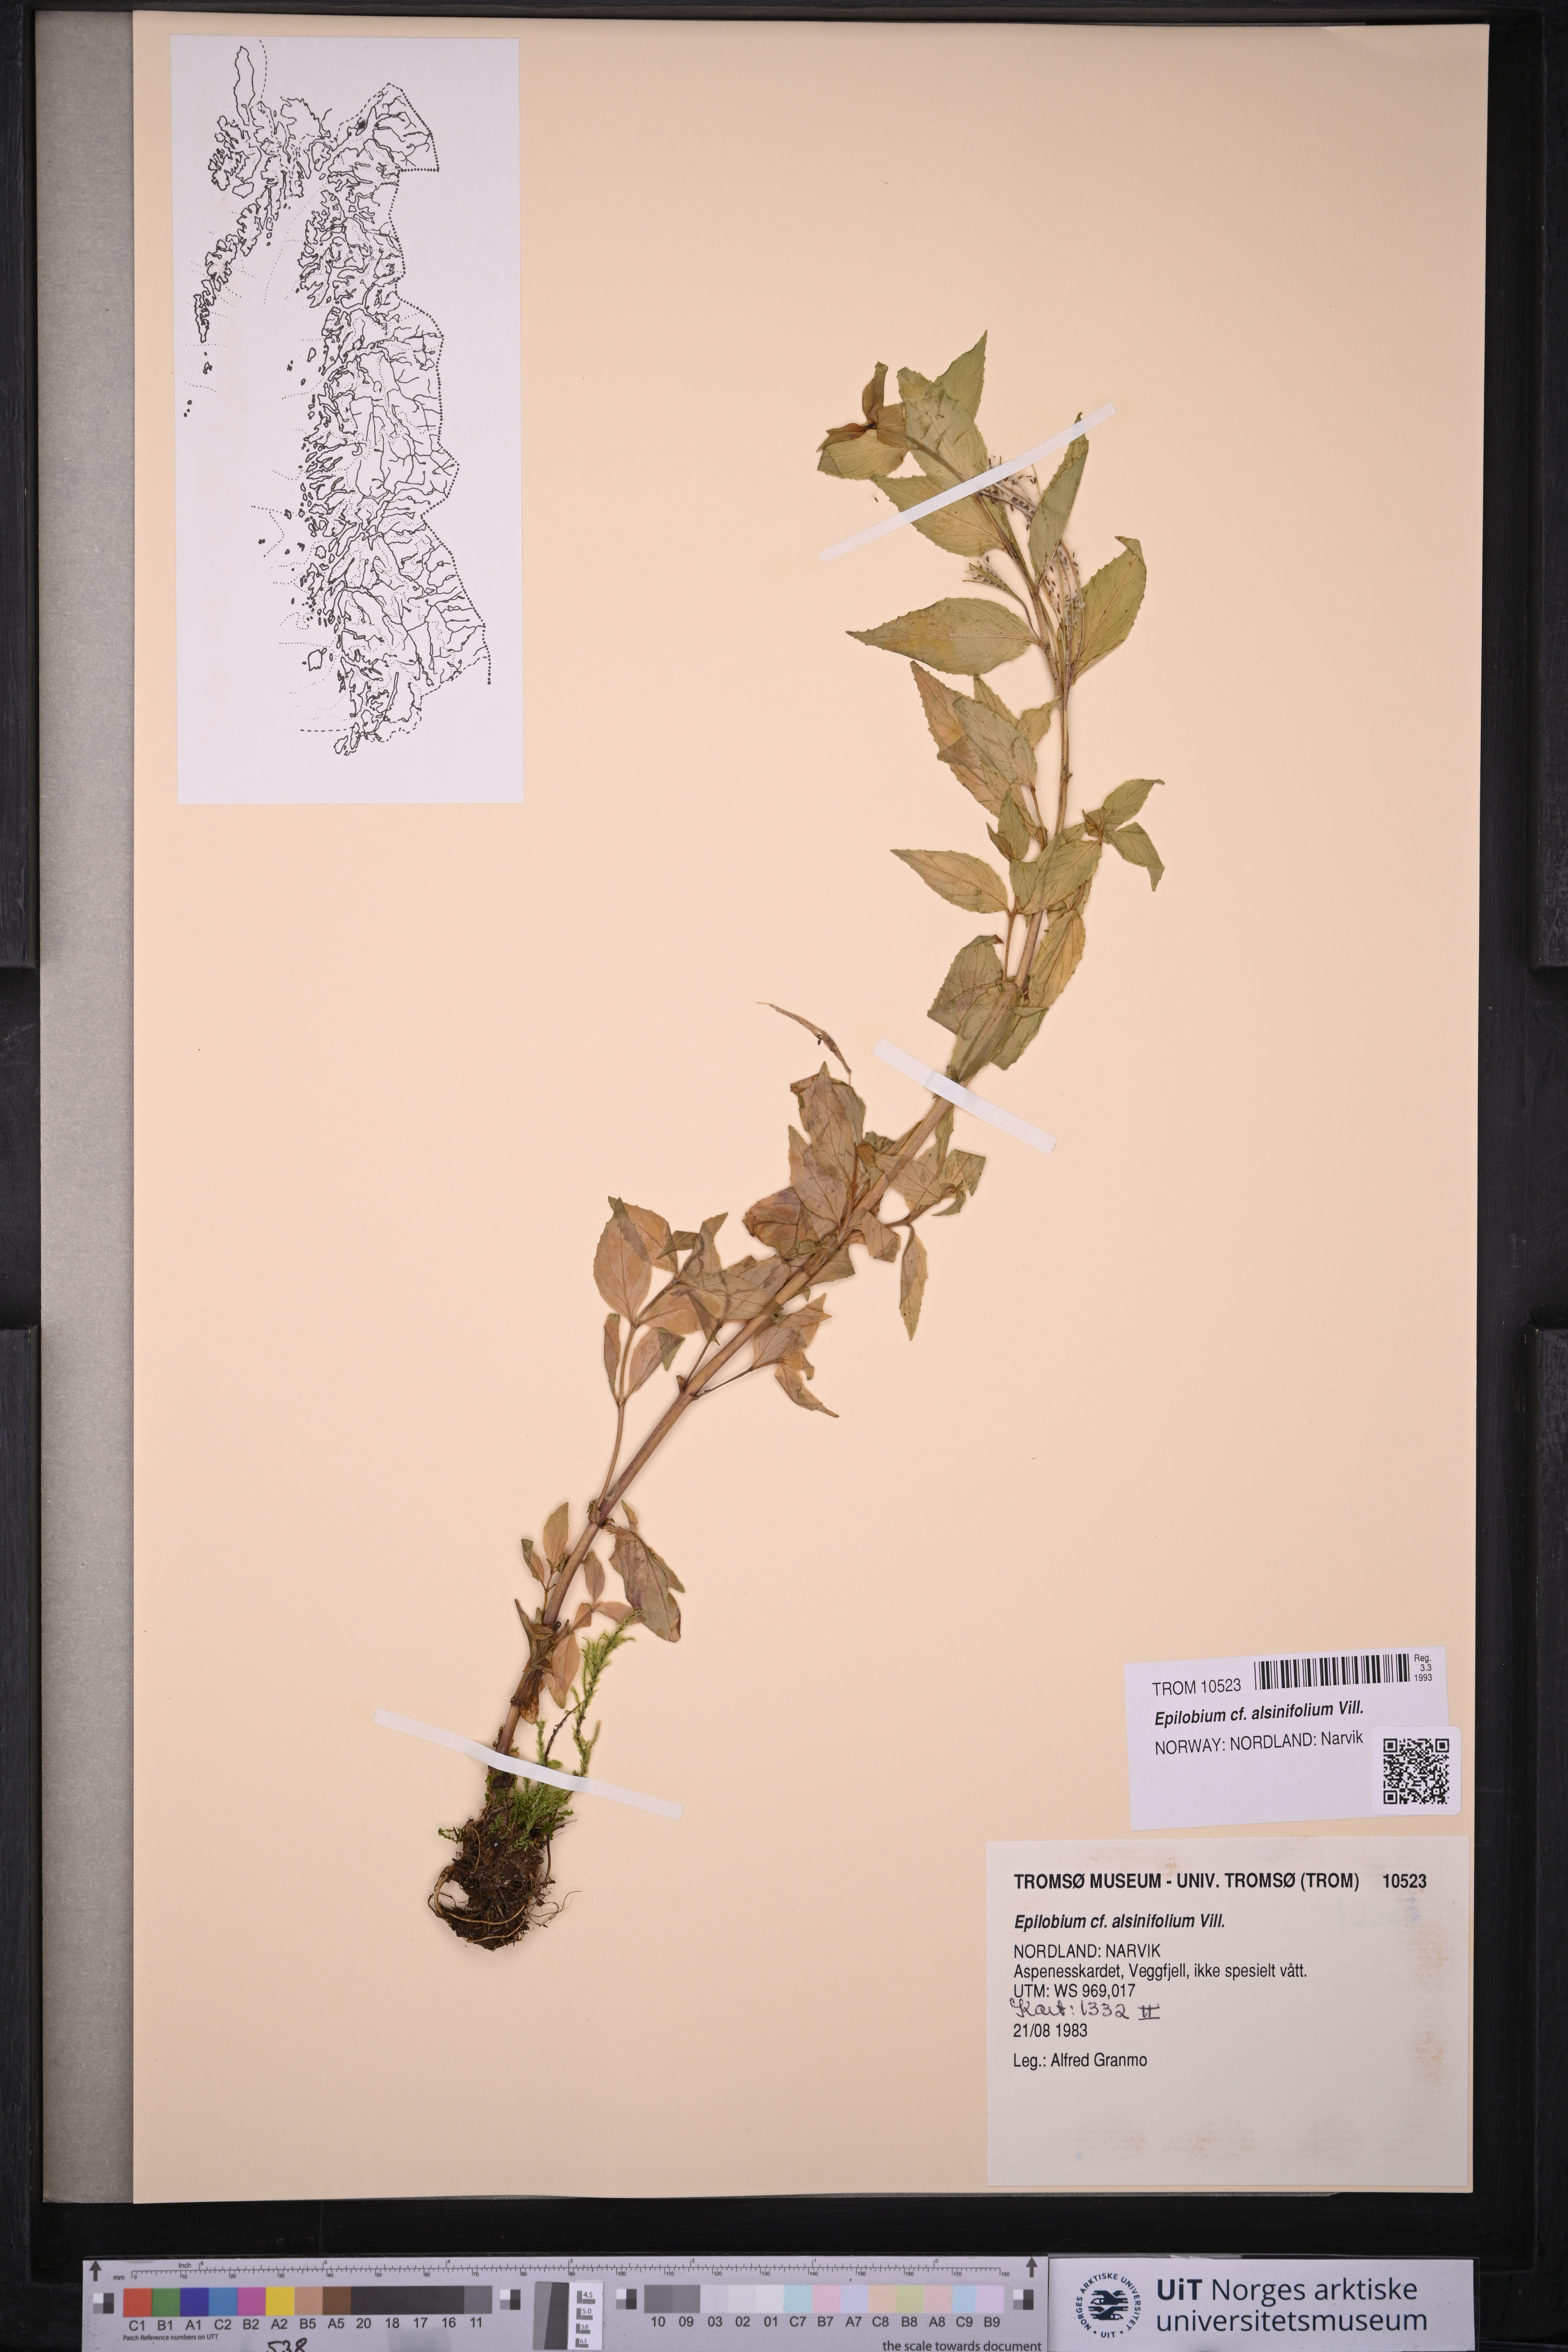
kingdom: Plantae
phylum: Tracheophyta
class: Magnoliopsida
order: Myrtales
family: Onagraceae
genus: Epilobium
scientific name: Epilobium alsinifolium
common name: Chickweed willowherb
